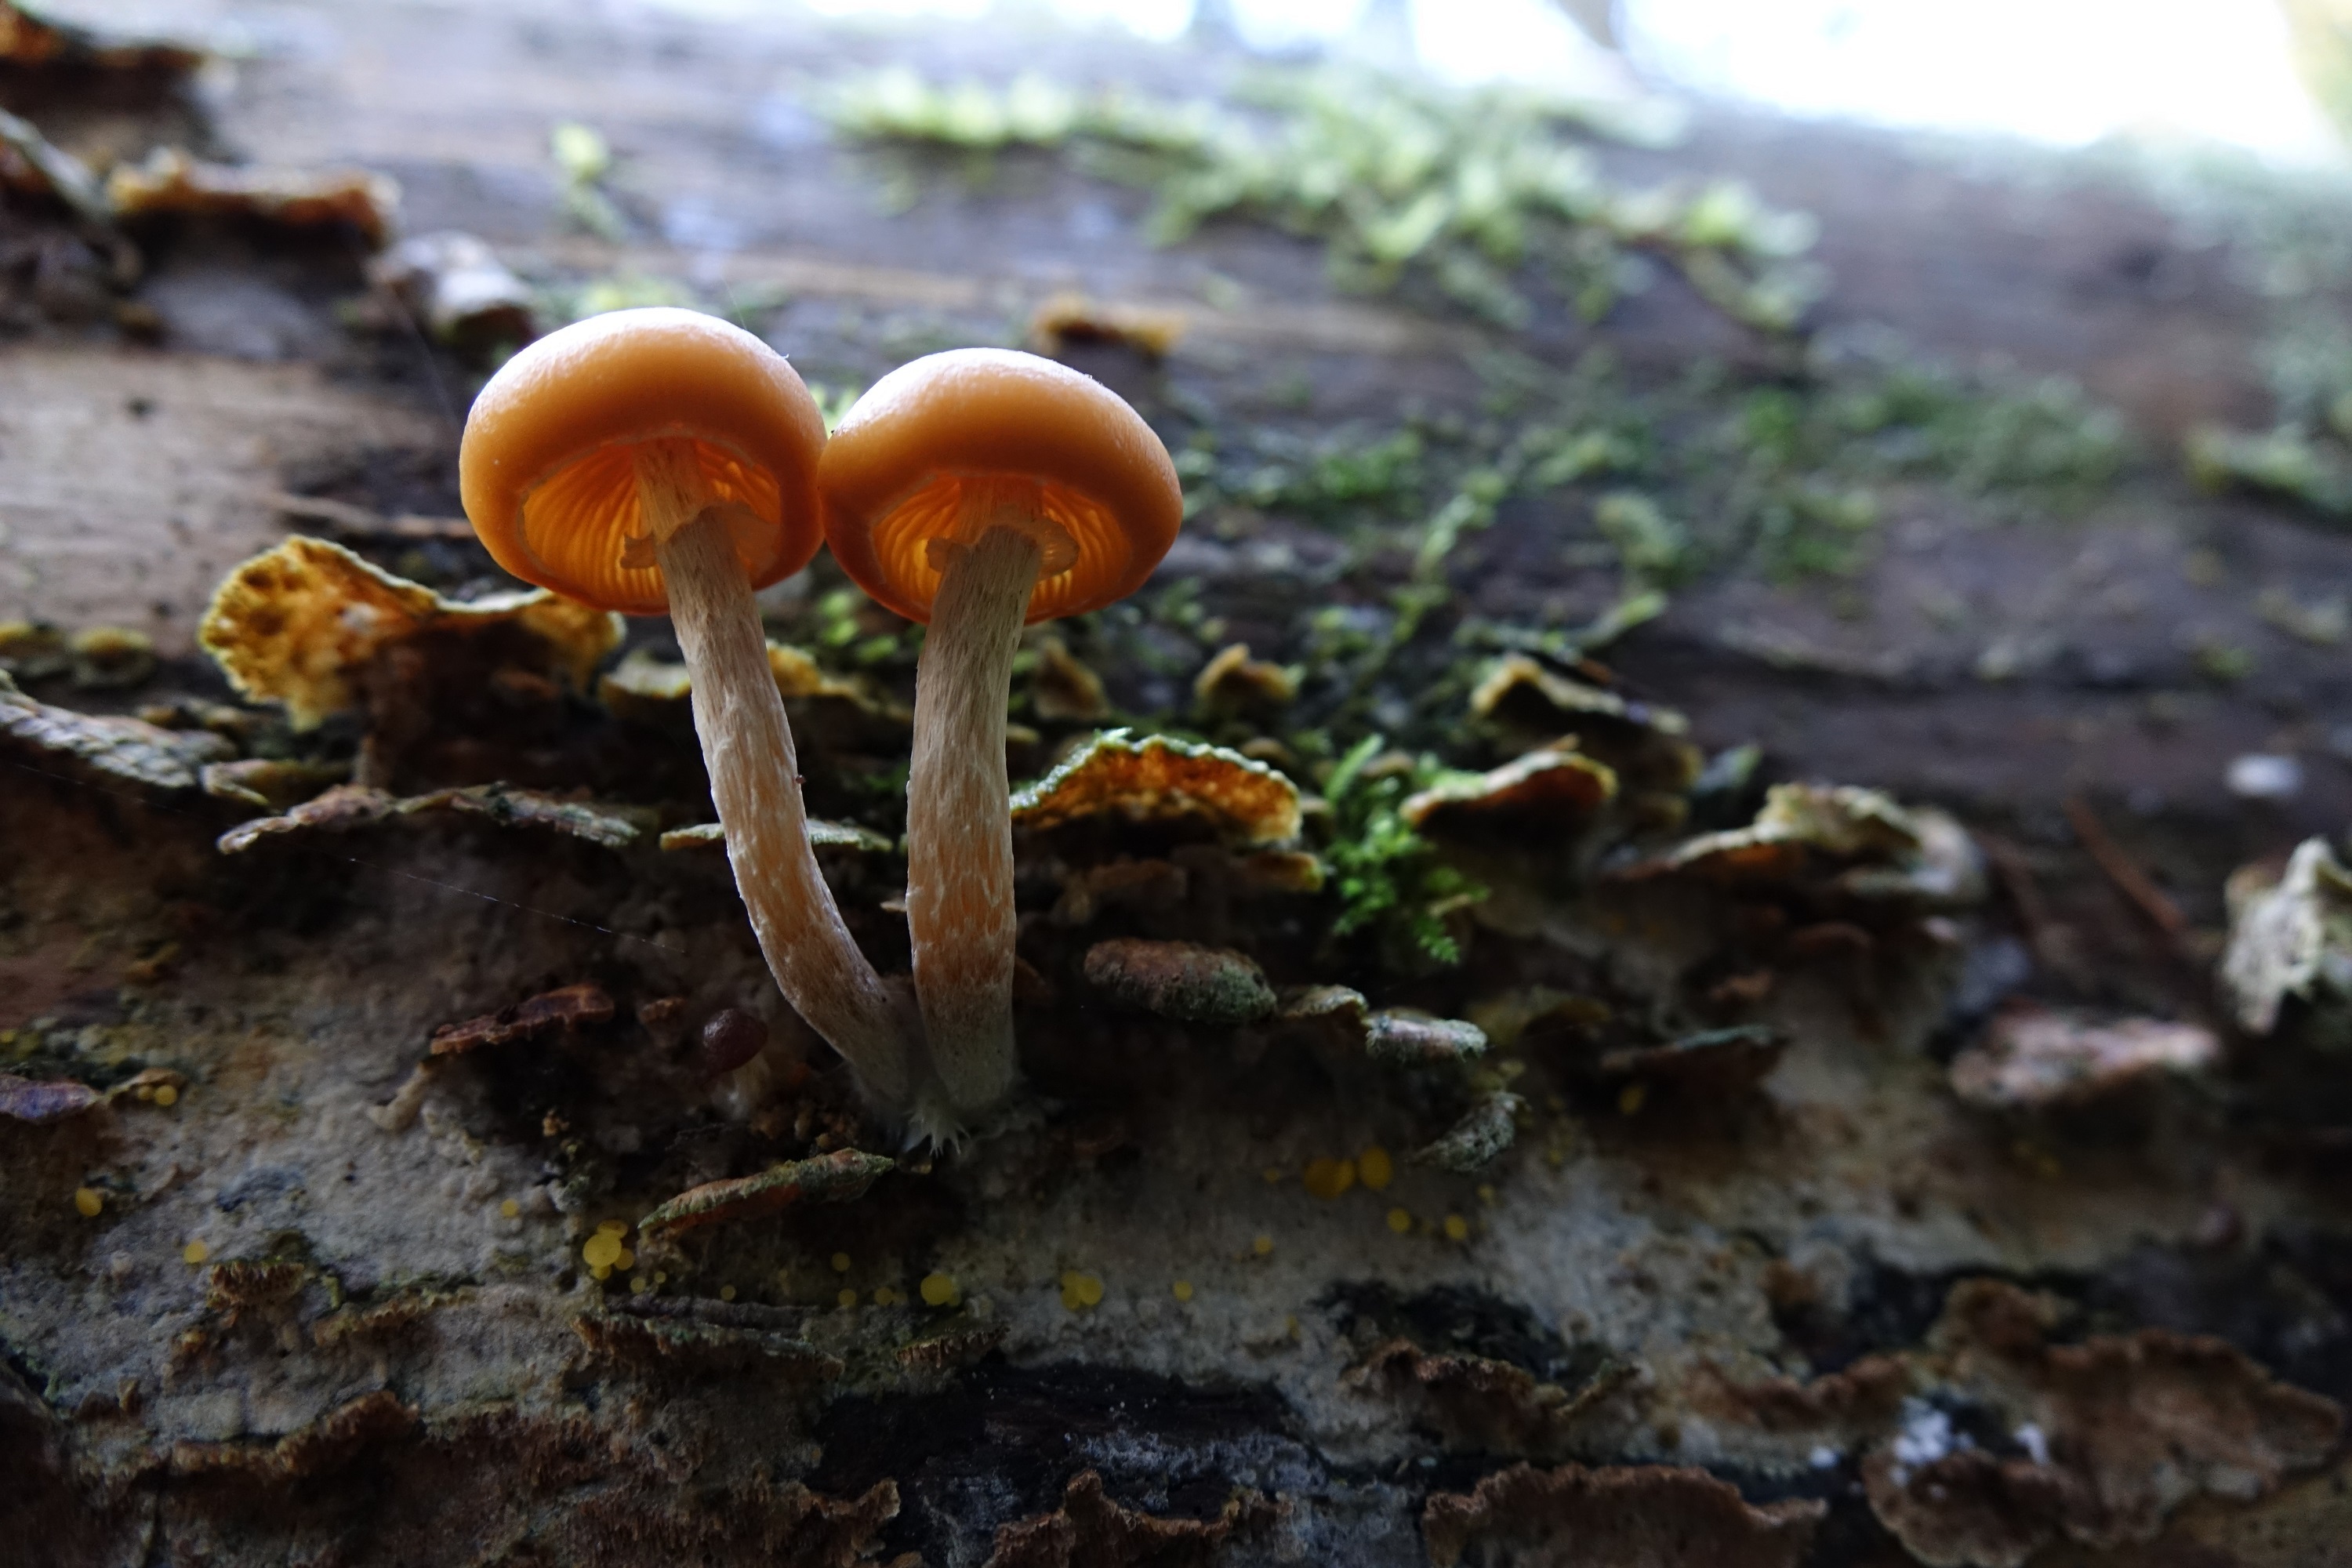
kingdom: Fungi
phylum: Basidiomycota
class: Agaricomycetes
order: Agaricales
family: Hymenogastraceae
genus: Galerina
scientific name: Galerina marginata
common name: Funeral bell
